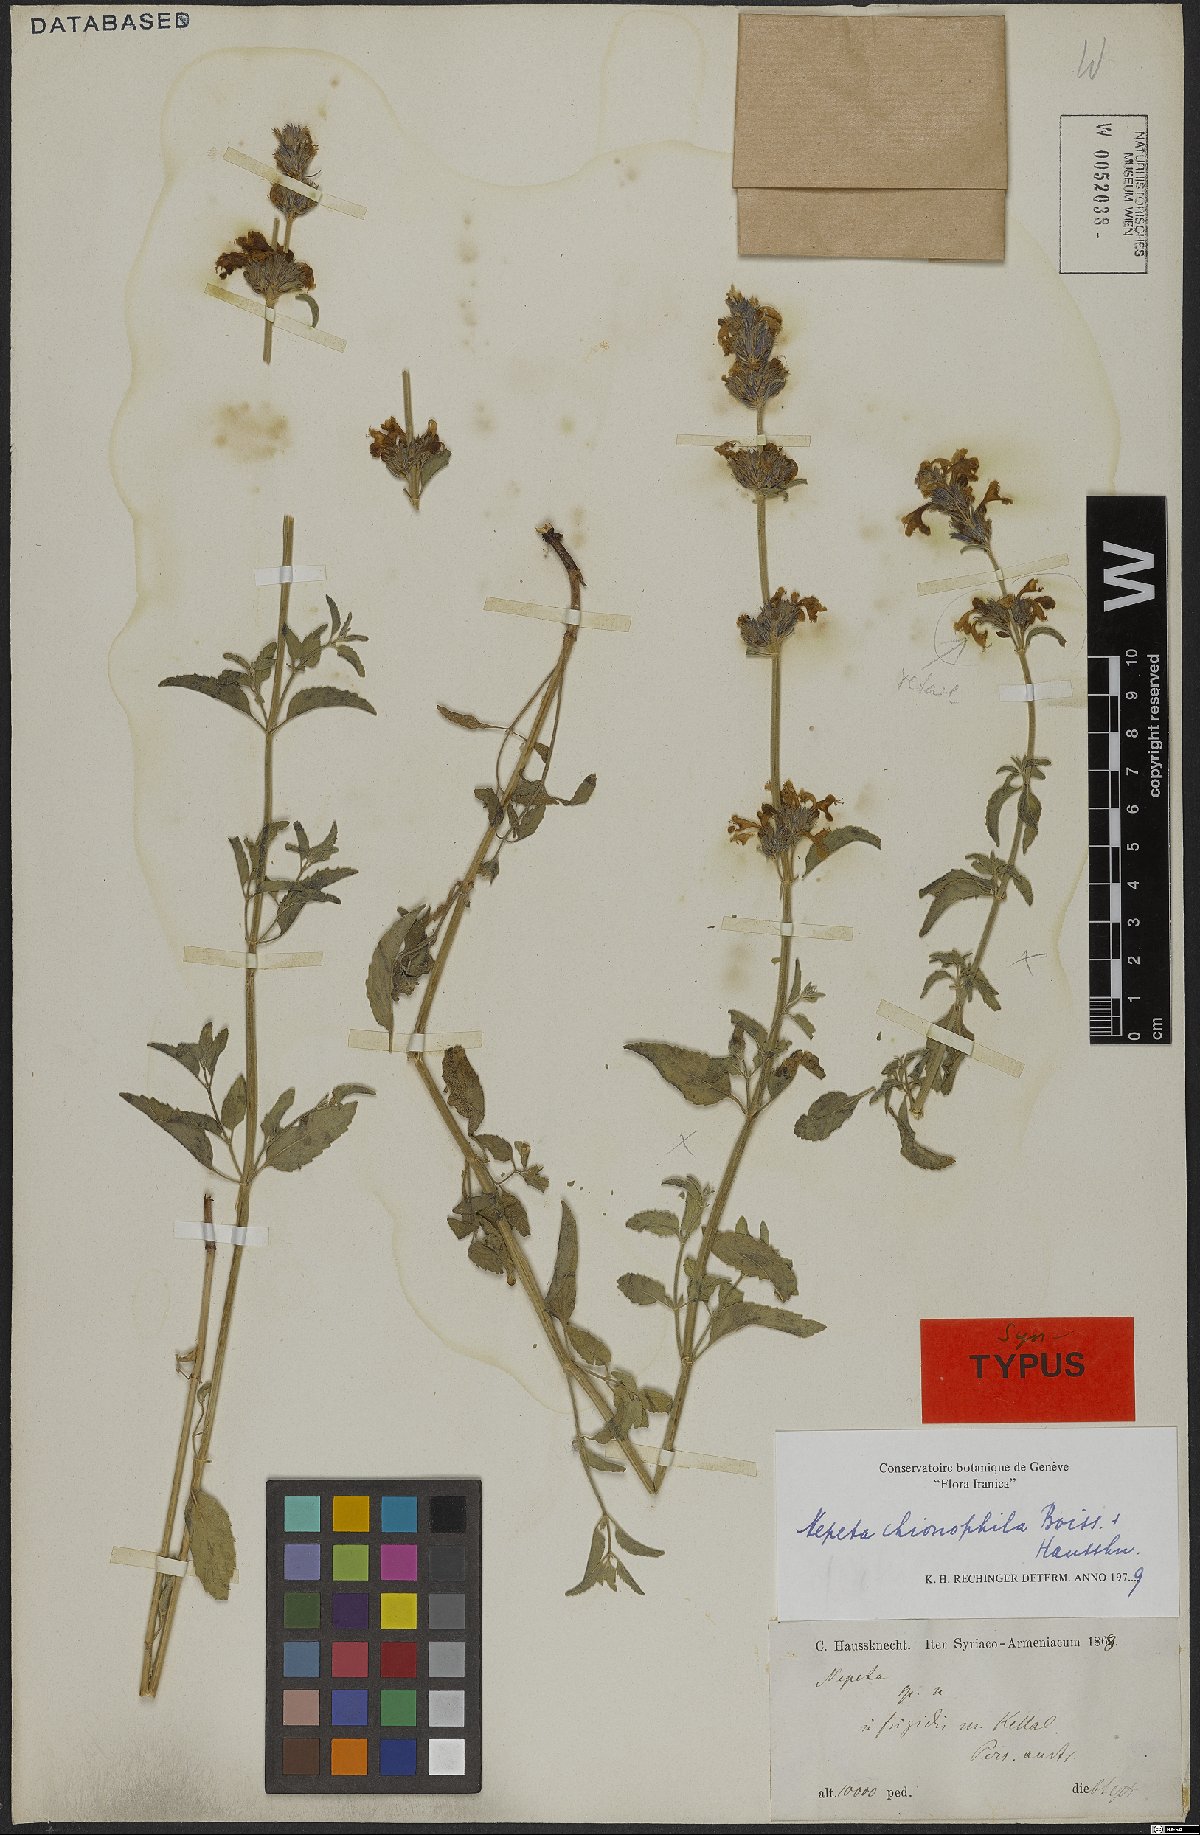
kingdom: Plantae
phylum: Tracheophyta
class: Magnoliopsida
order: Lamiales
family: Lamiaceae
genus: Nepeta
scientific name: Nepeta chionophila
